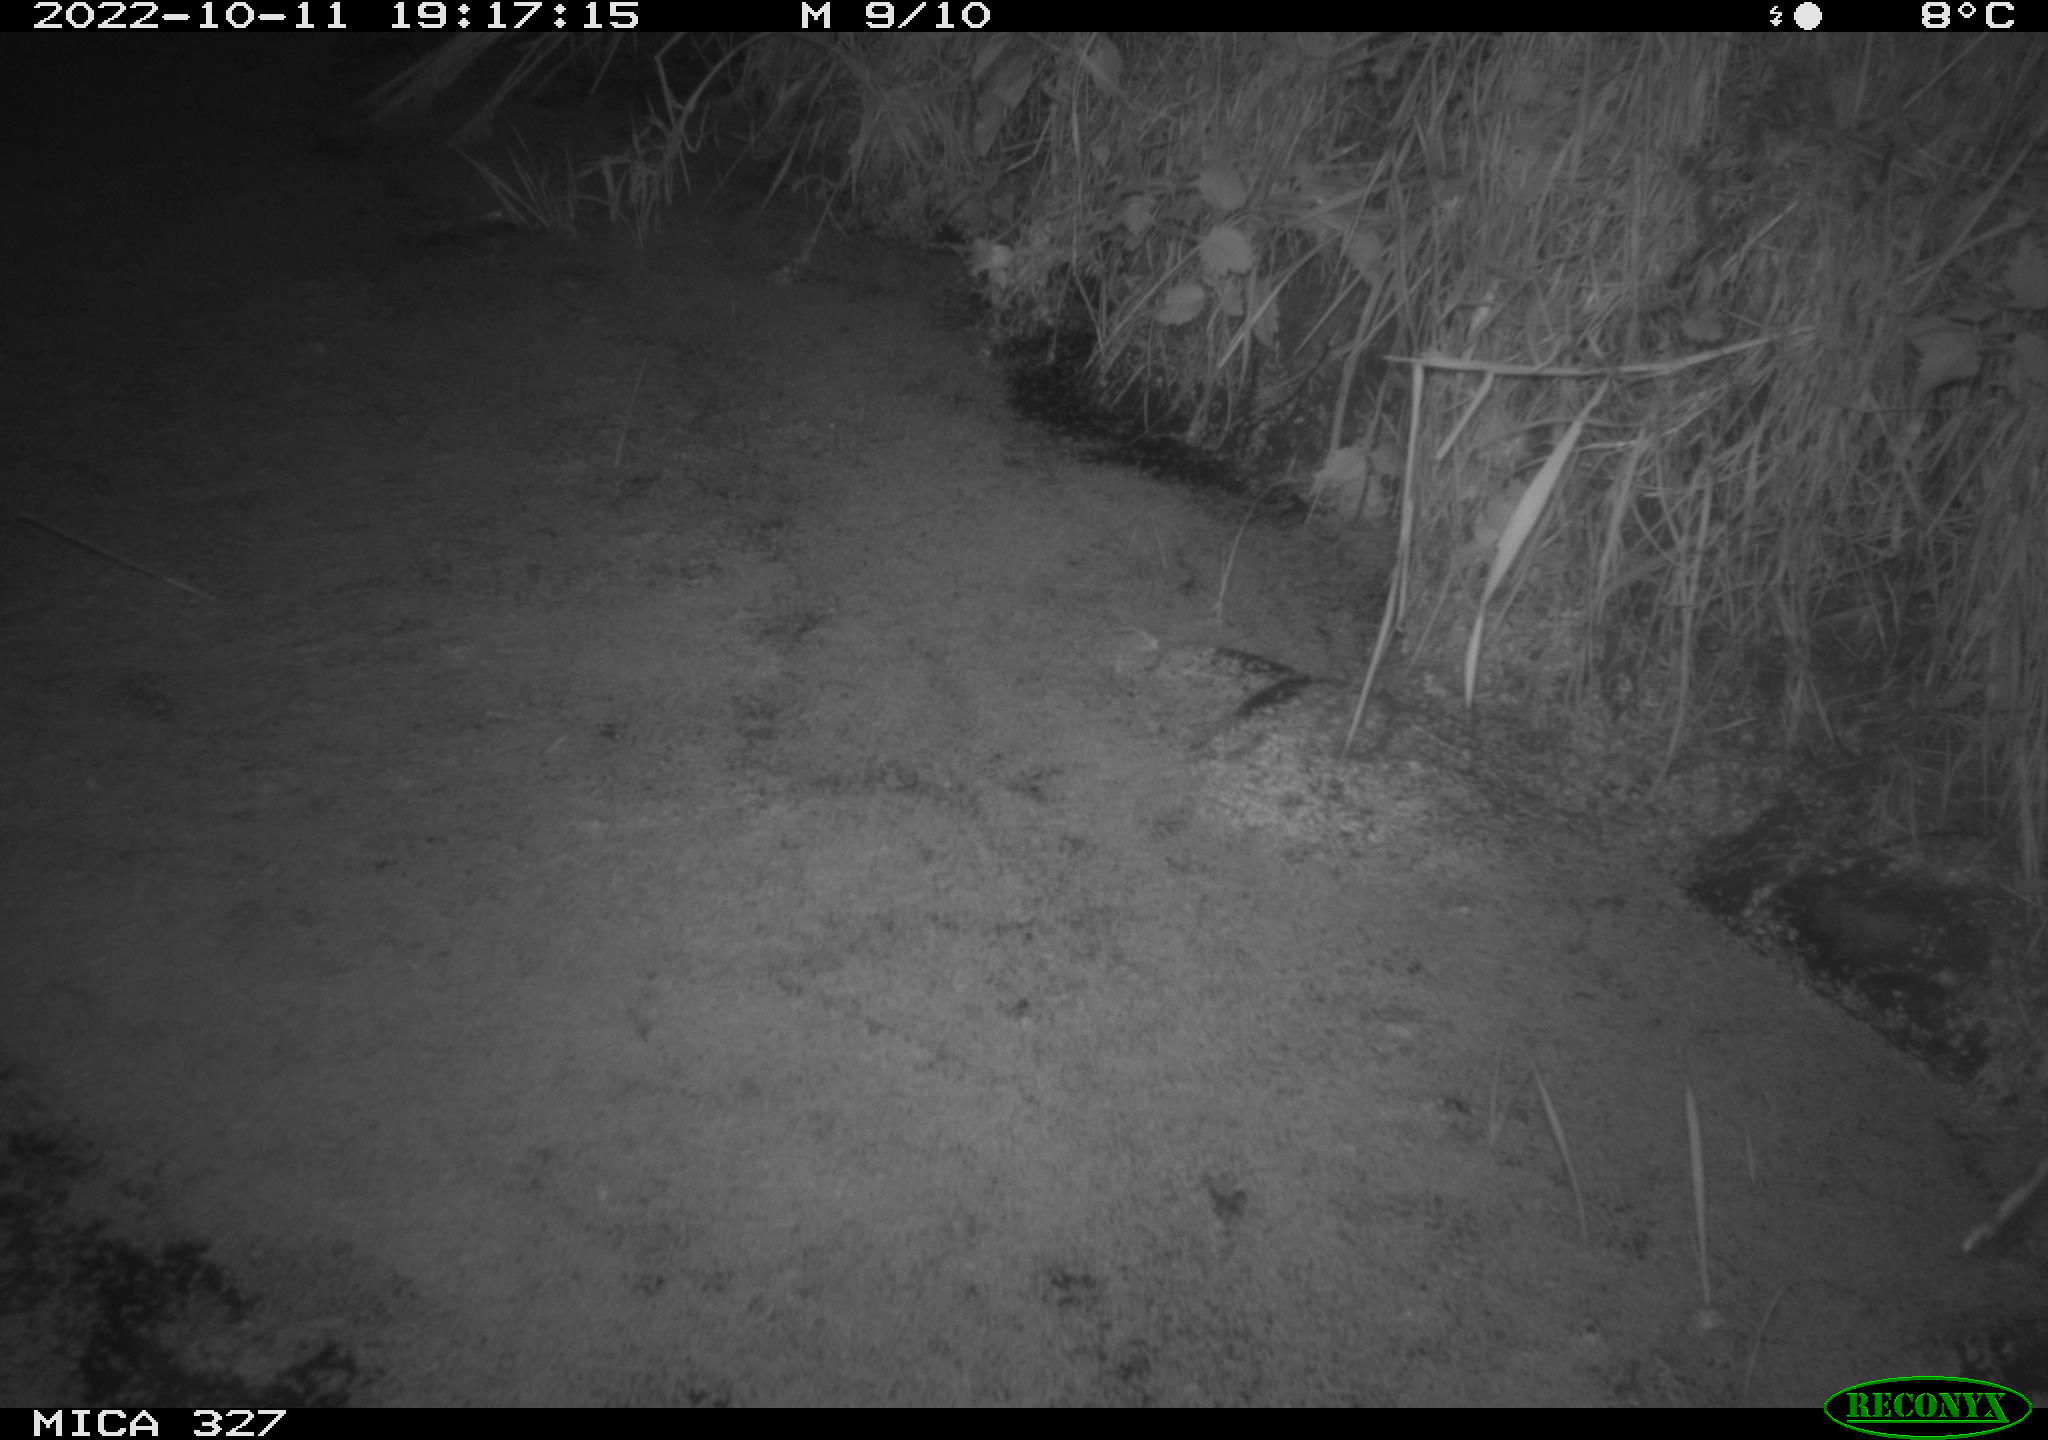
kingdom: Animalia
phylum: Chordata
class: Mammalia
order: Rodentia
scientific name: Rodentia
